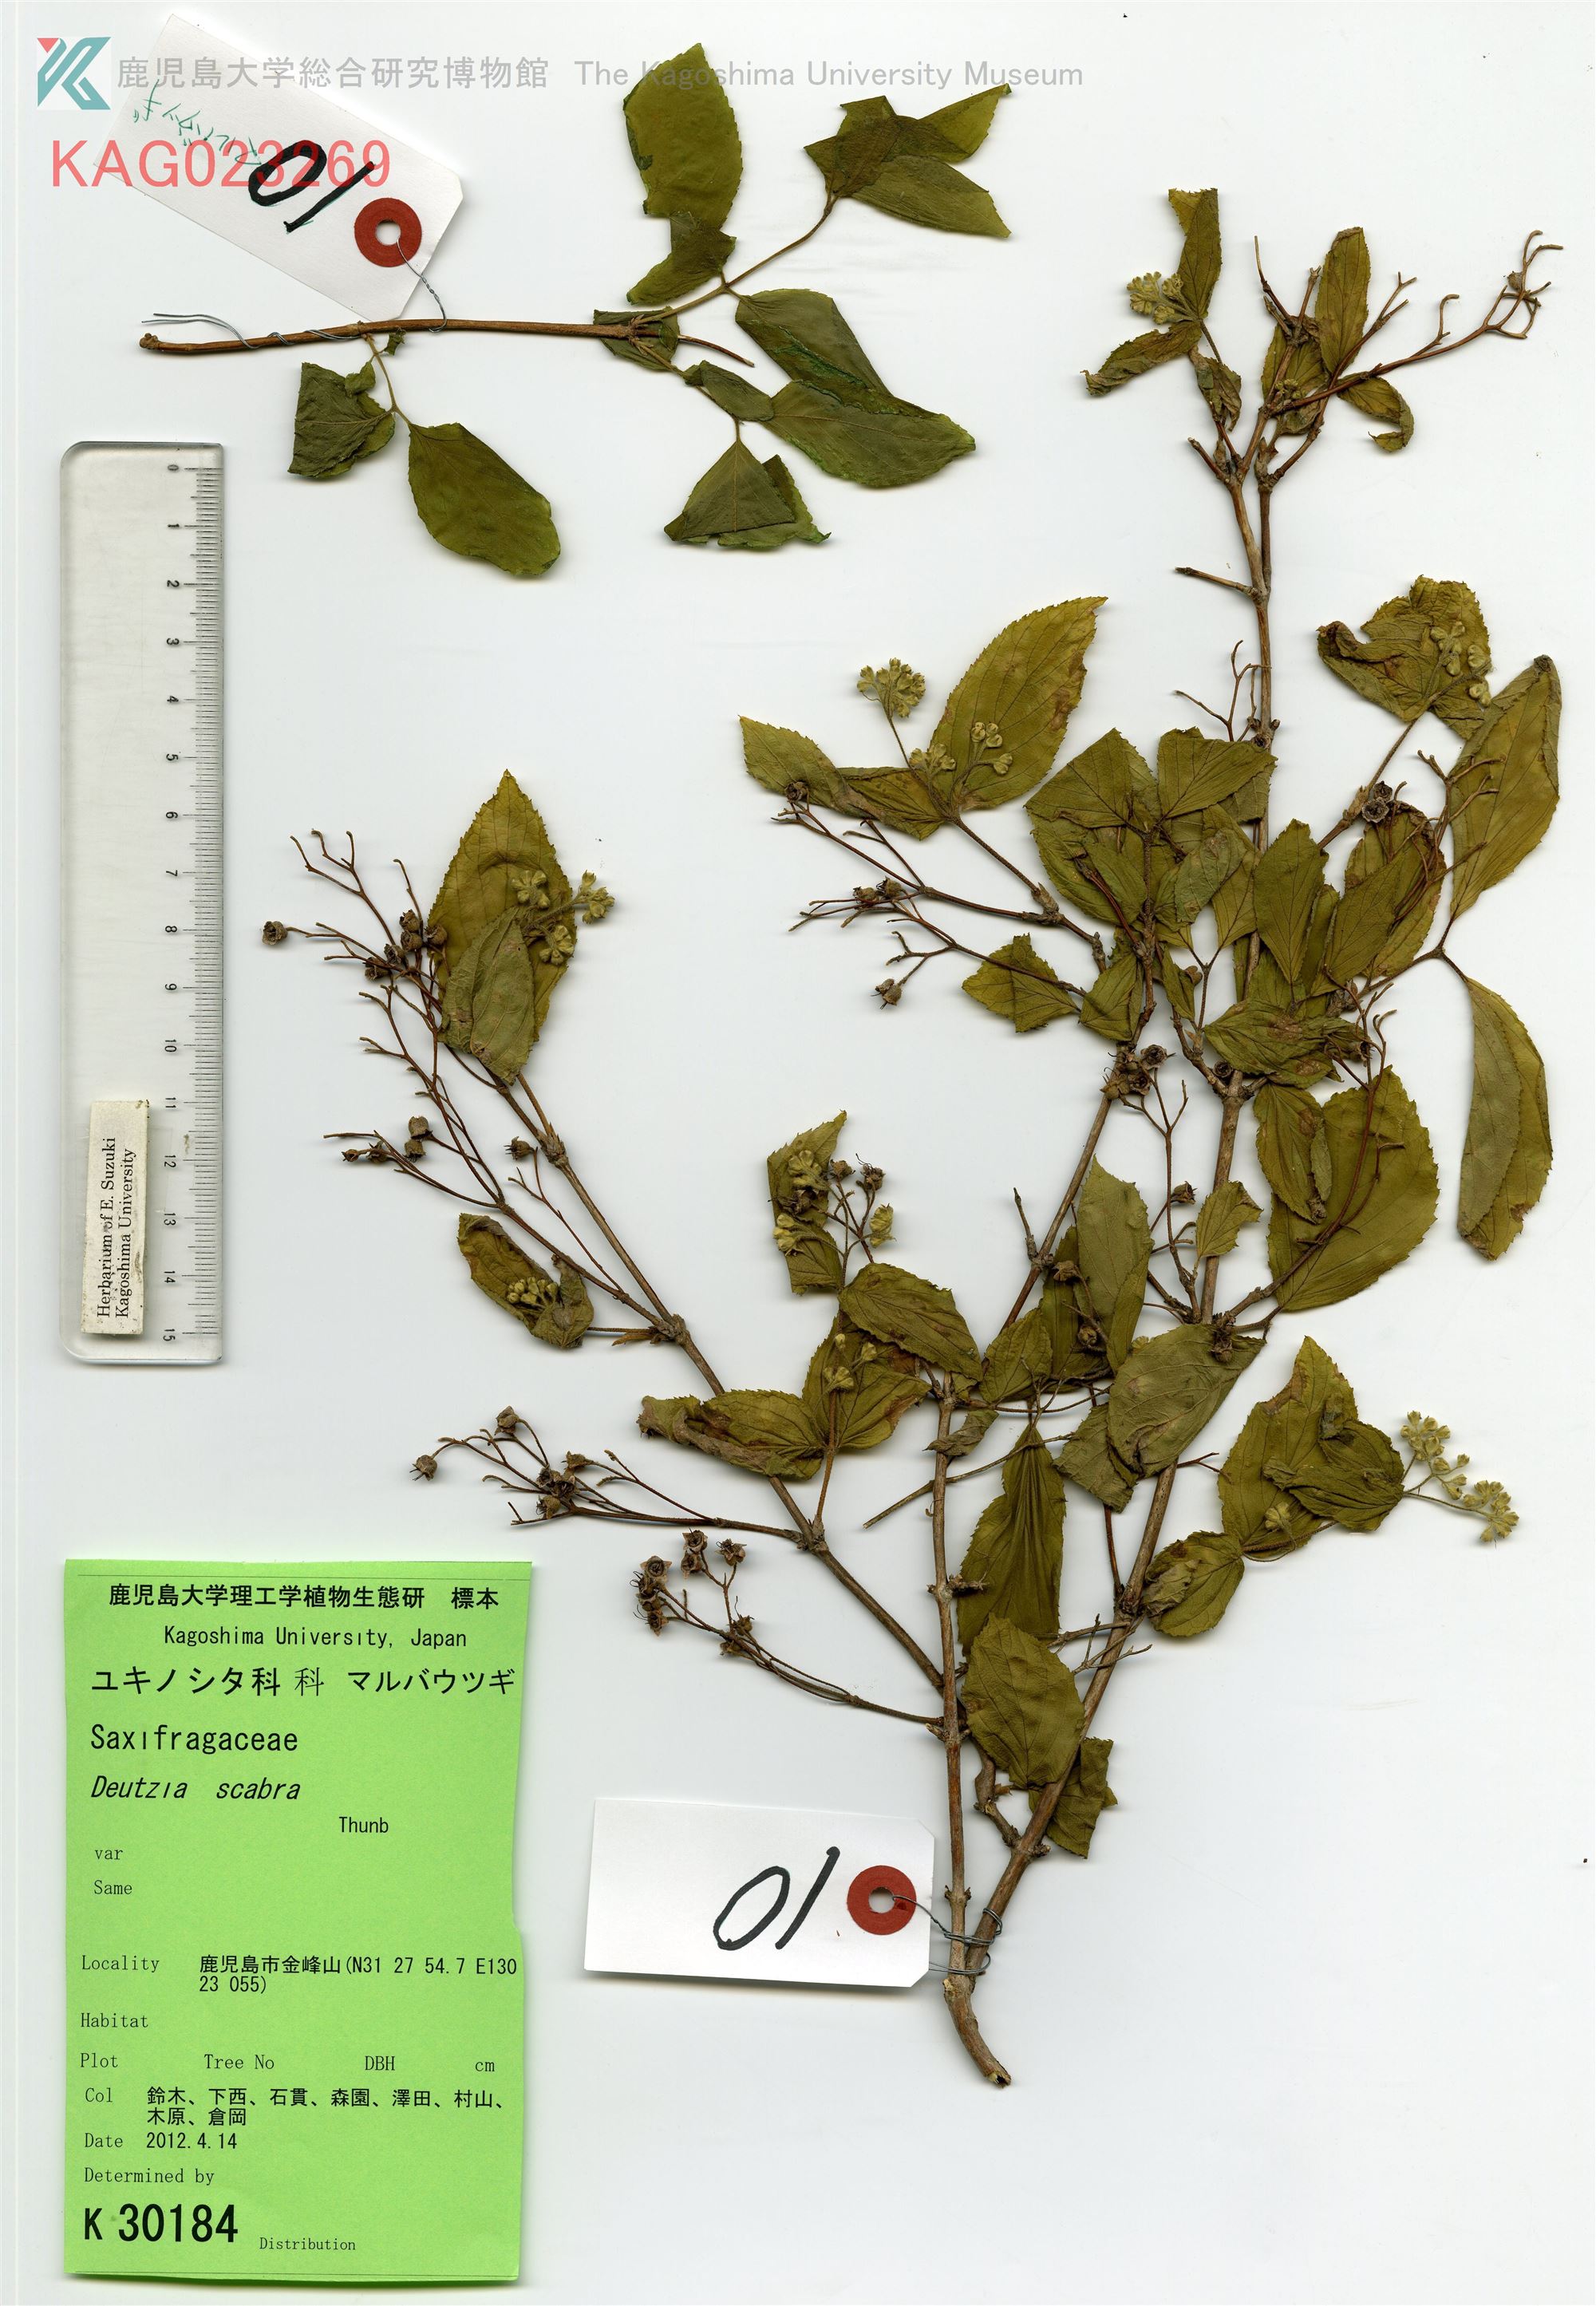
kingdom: Plantae
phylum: Tracheophyta
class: Magnoliopsida
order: Cornales
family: Hydrangeaceae
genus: Deutzia
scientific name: Deutzia scabra
